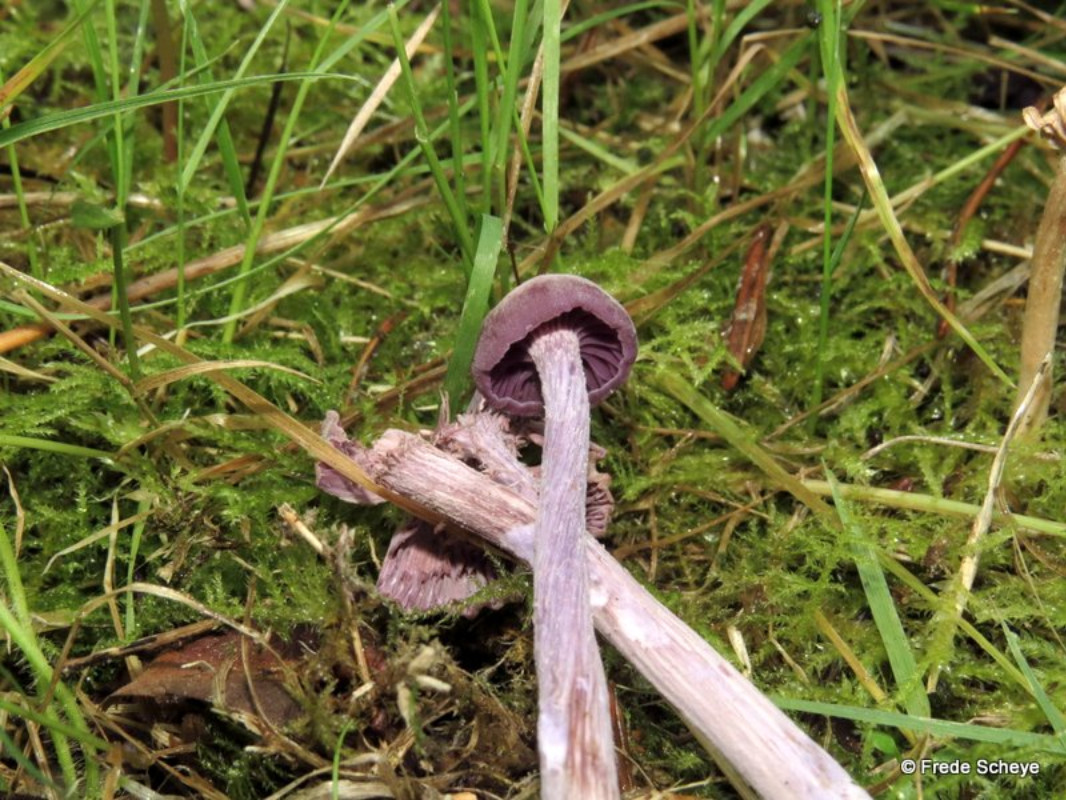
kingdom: Fungi
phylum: Basidiomycota
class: Agaricomycetes
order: Agaricales
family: Hydnangiaceae
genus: Laccaria
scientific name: Laccaria amethystina
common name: violet ametysthat
